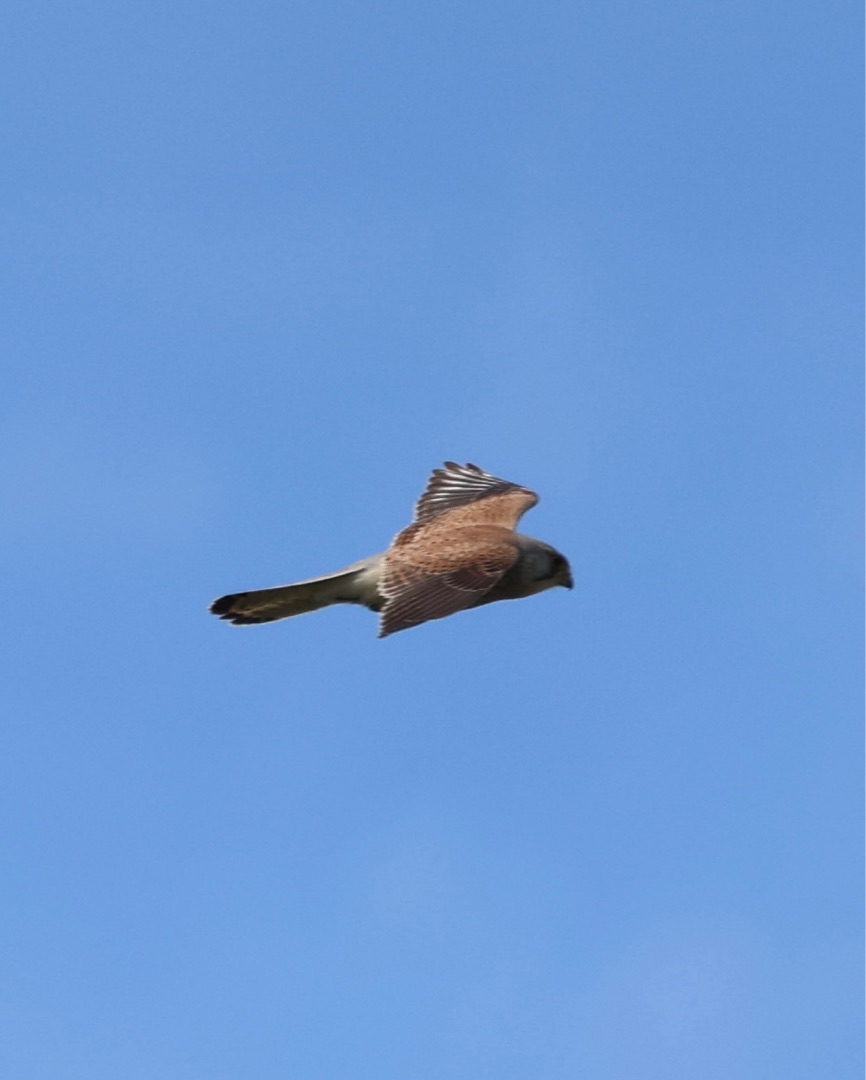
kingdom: Animalia
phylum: Chordata
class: Aves
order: Falconiformes
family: Falconidae
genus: Falco
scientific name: Falco tinnunculus
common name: Tårnfalk
